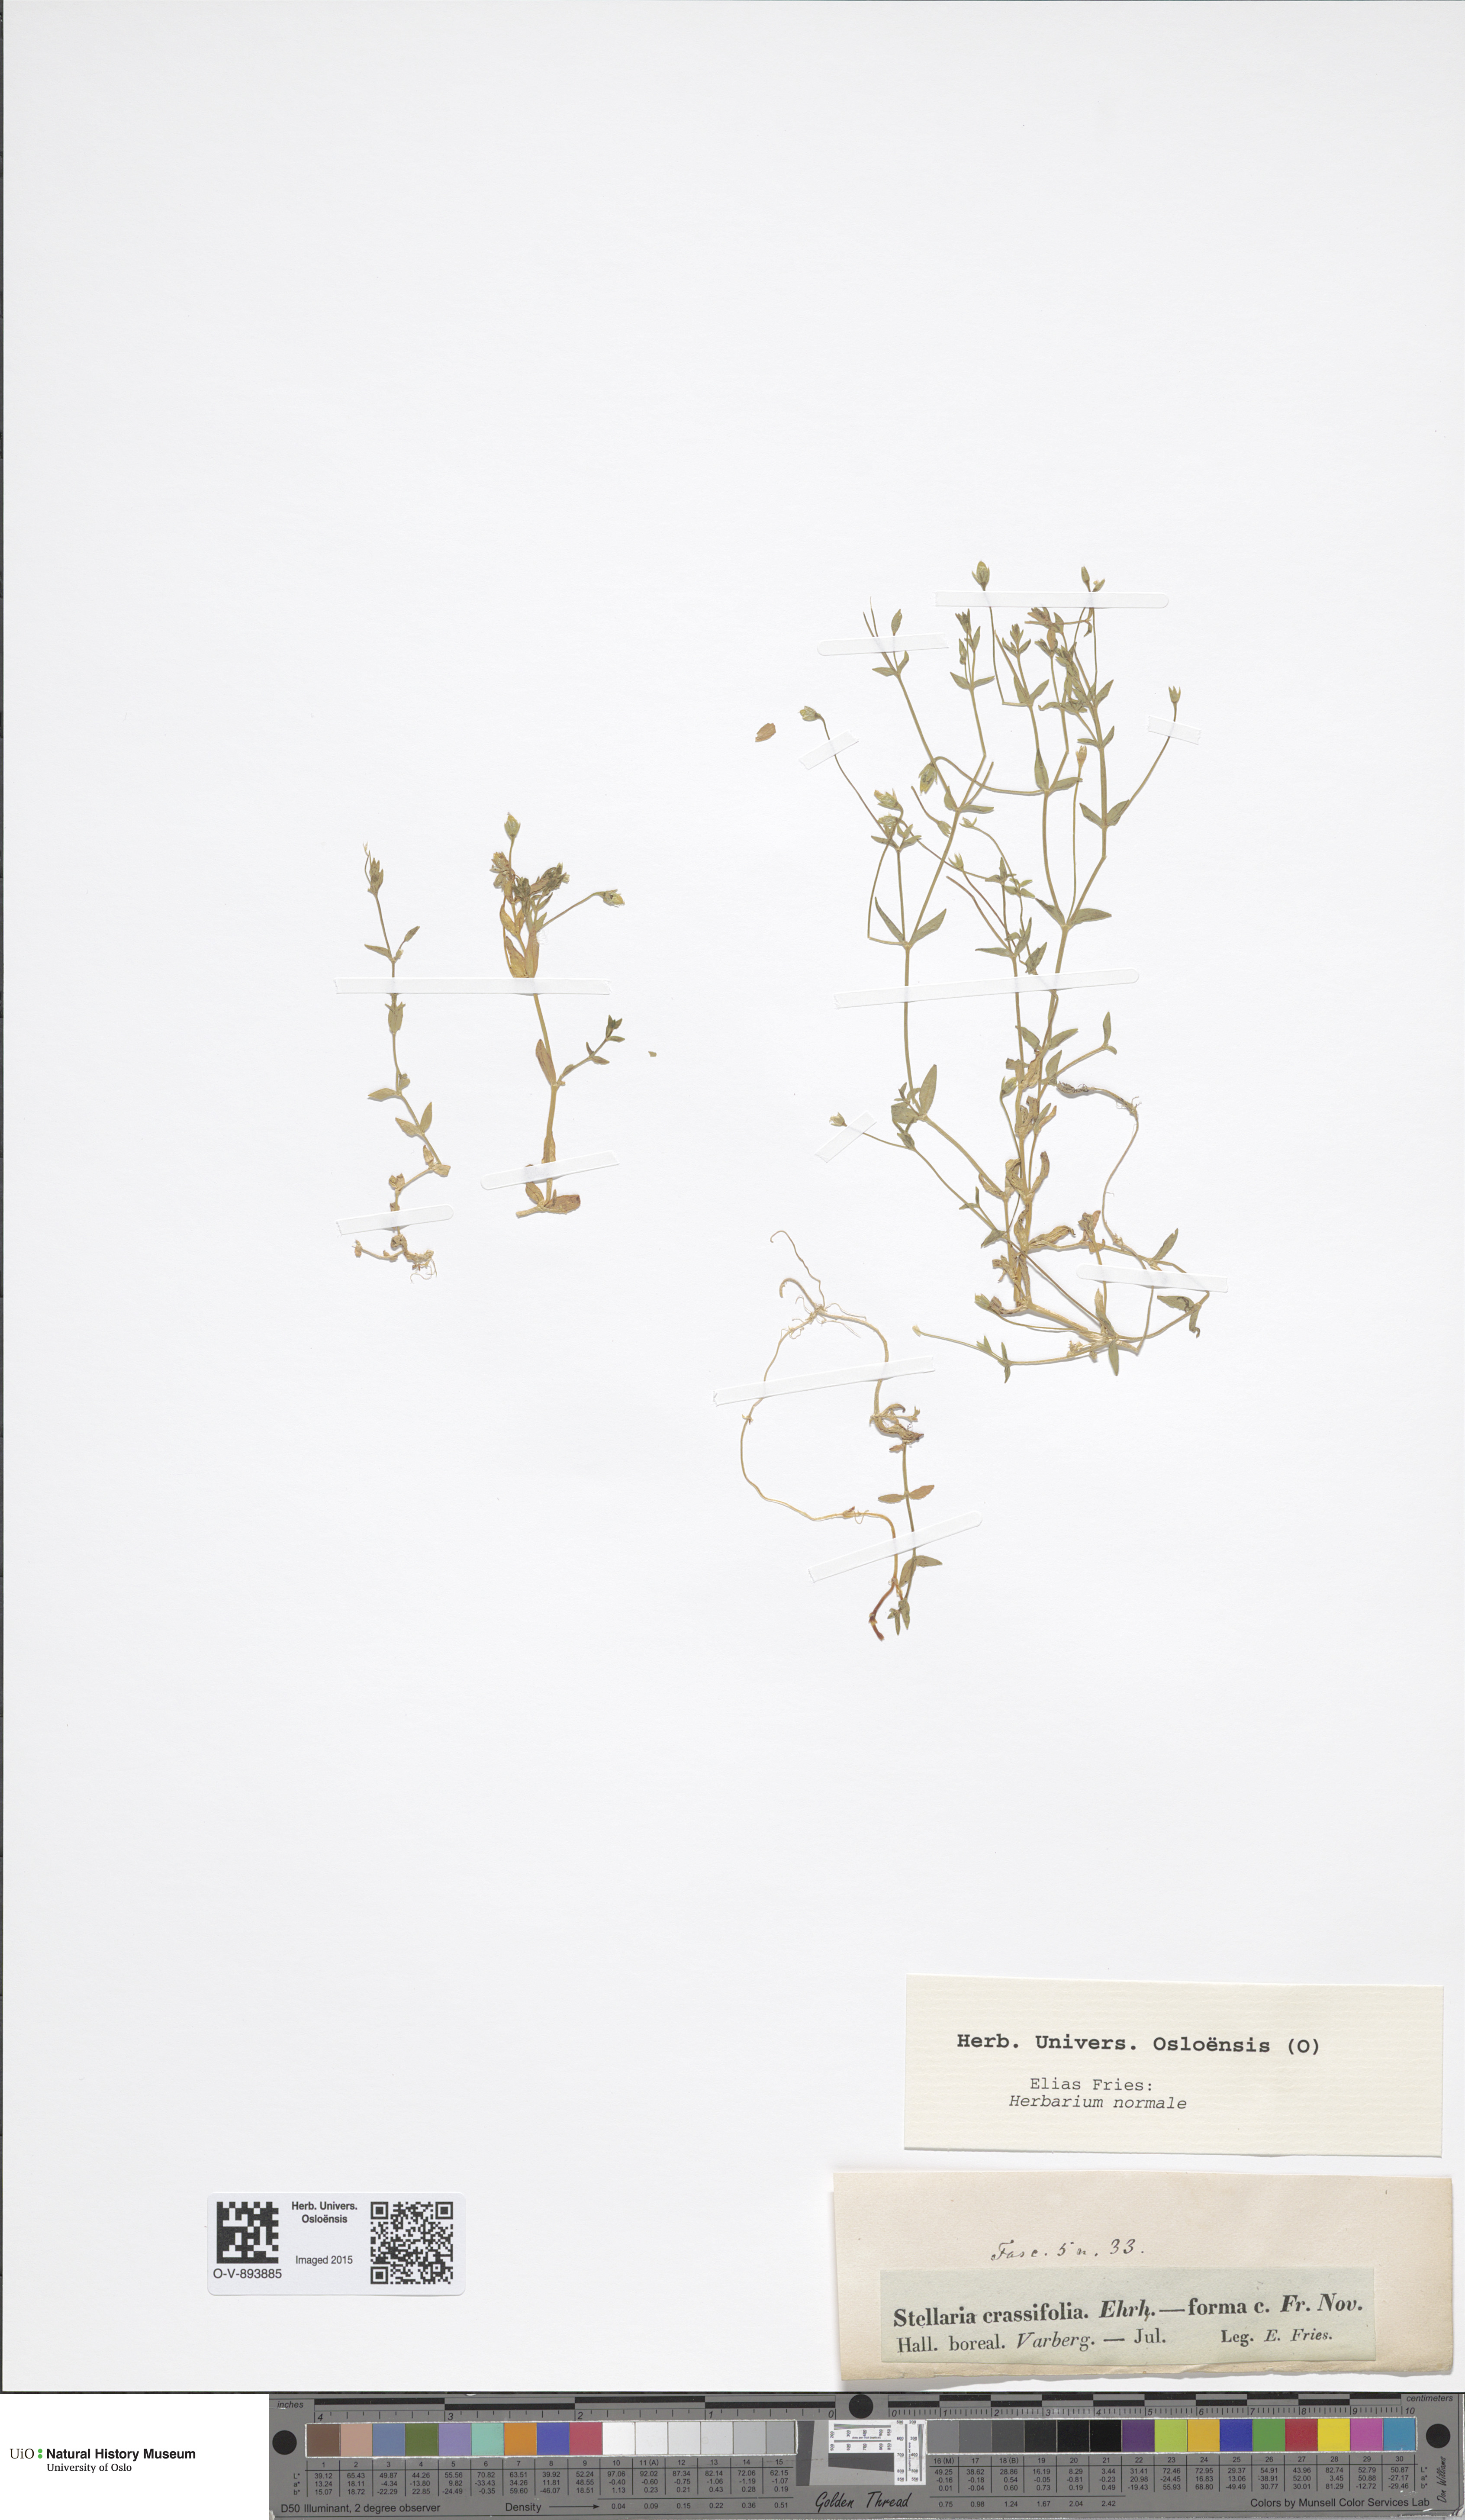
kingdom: Plantae
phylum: Tracheophyta
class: Magnoliopsida
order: Caryophyllales
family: Caryophyllaceae
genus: Stellaria
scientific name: Stellaria crassifolia
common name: Fleshy starwort
